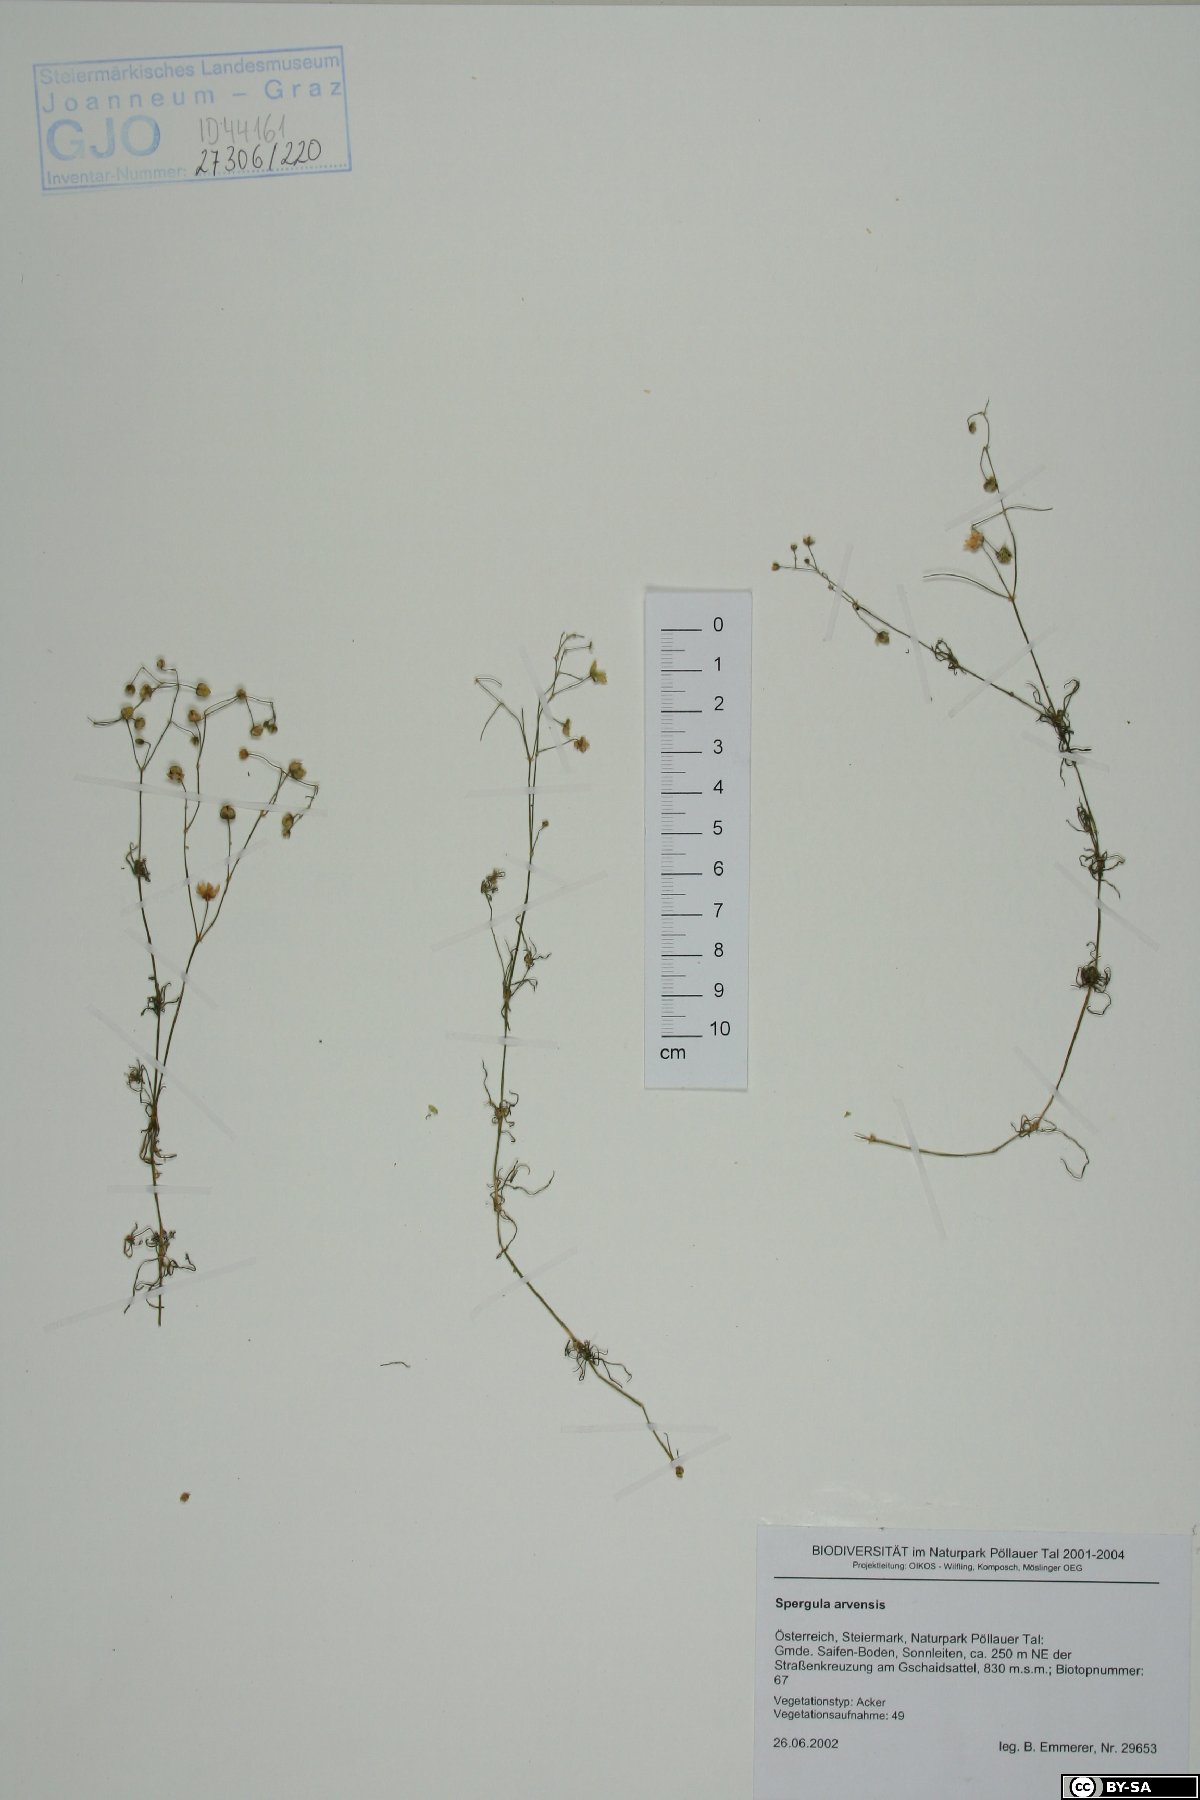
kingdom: Plantae
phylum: Tracheophyta
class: Magnoliopsida
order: Caryophyllales
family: Caryophyllaceae
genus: Spergula
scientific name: Spergula arvensis
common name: Corn spurrey
